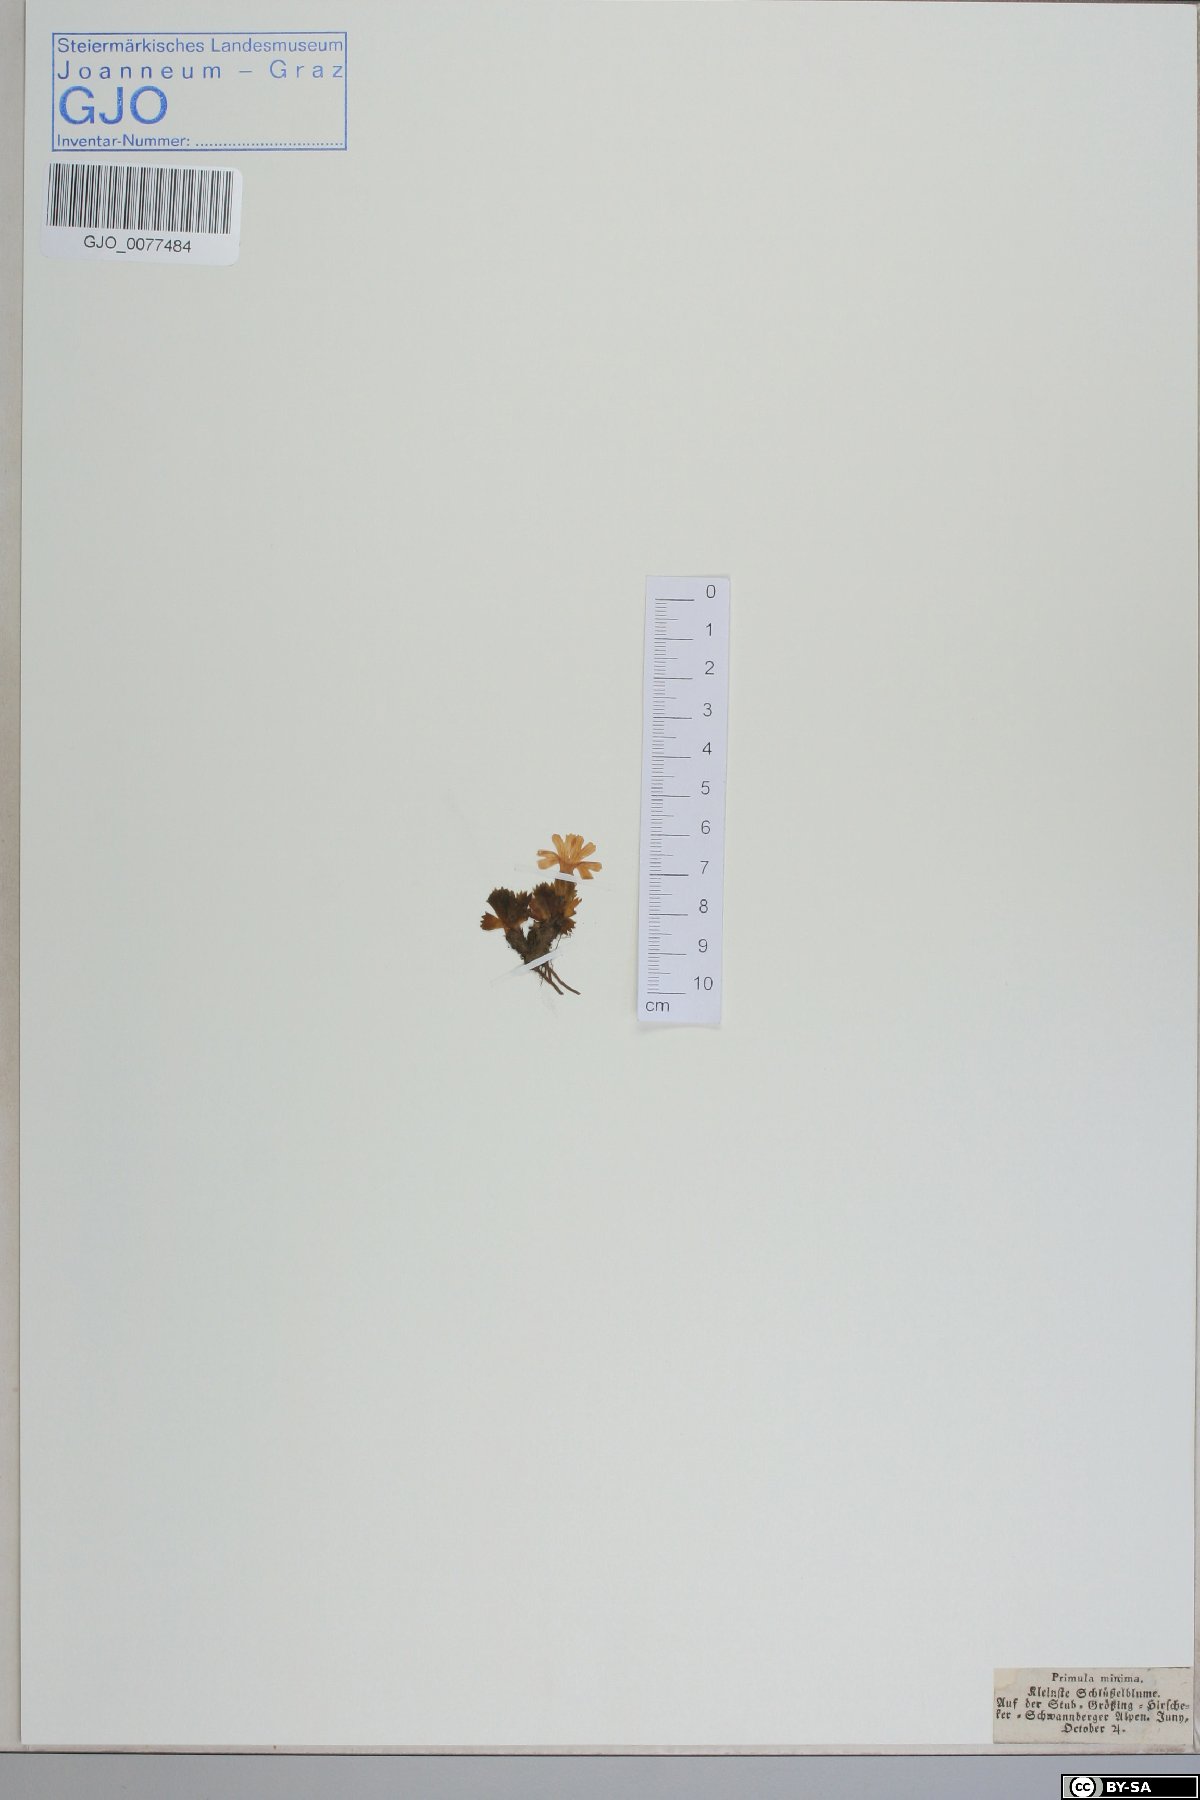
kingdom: Plantae
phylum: Tracheophyta
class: Magnoliopsida
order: Ericales
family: Primulaceae
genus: Primula
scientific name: Primula minima
